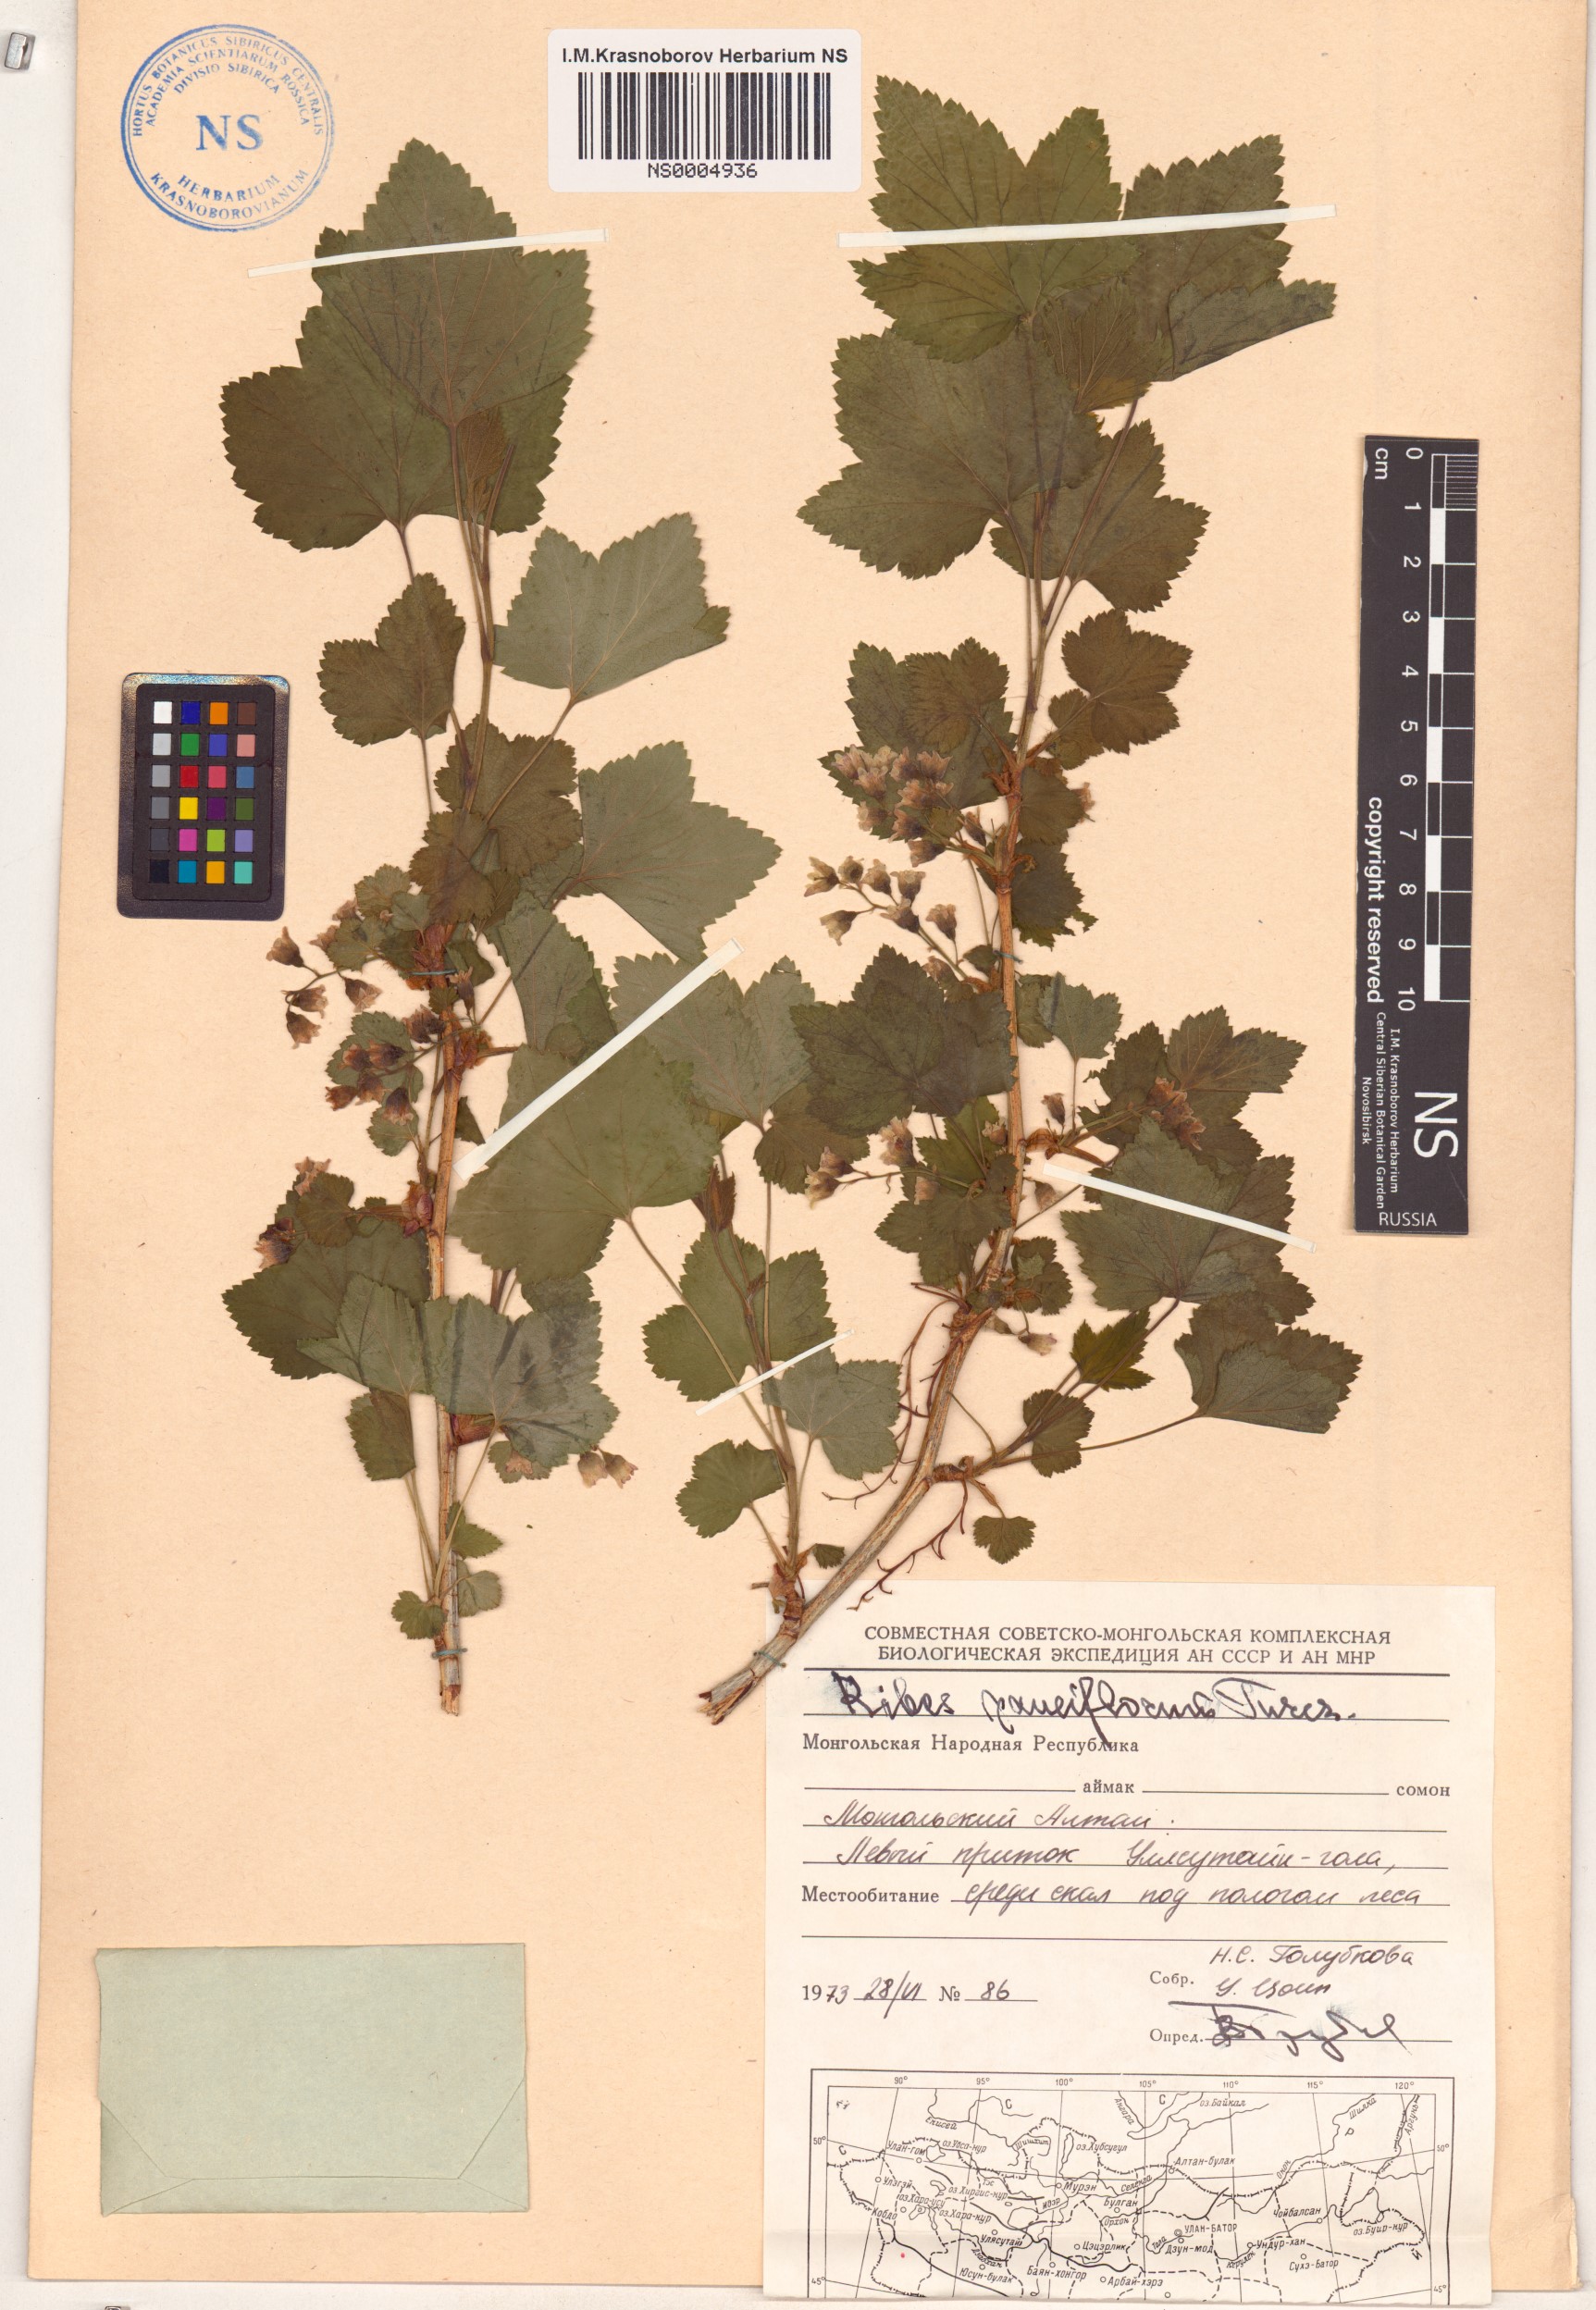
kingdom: Plantae
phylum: Tracheophyta
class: Magnoliopsida
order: Saxifragales
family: Grossulariaceae
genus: Ribes
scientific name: Ribes nigrum
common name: Black currant
